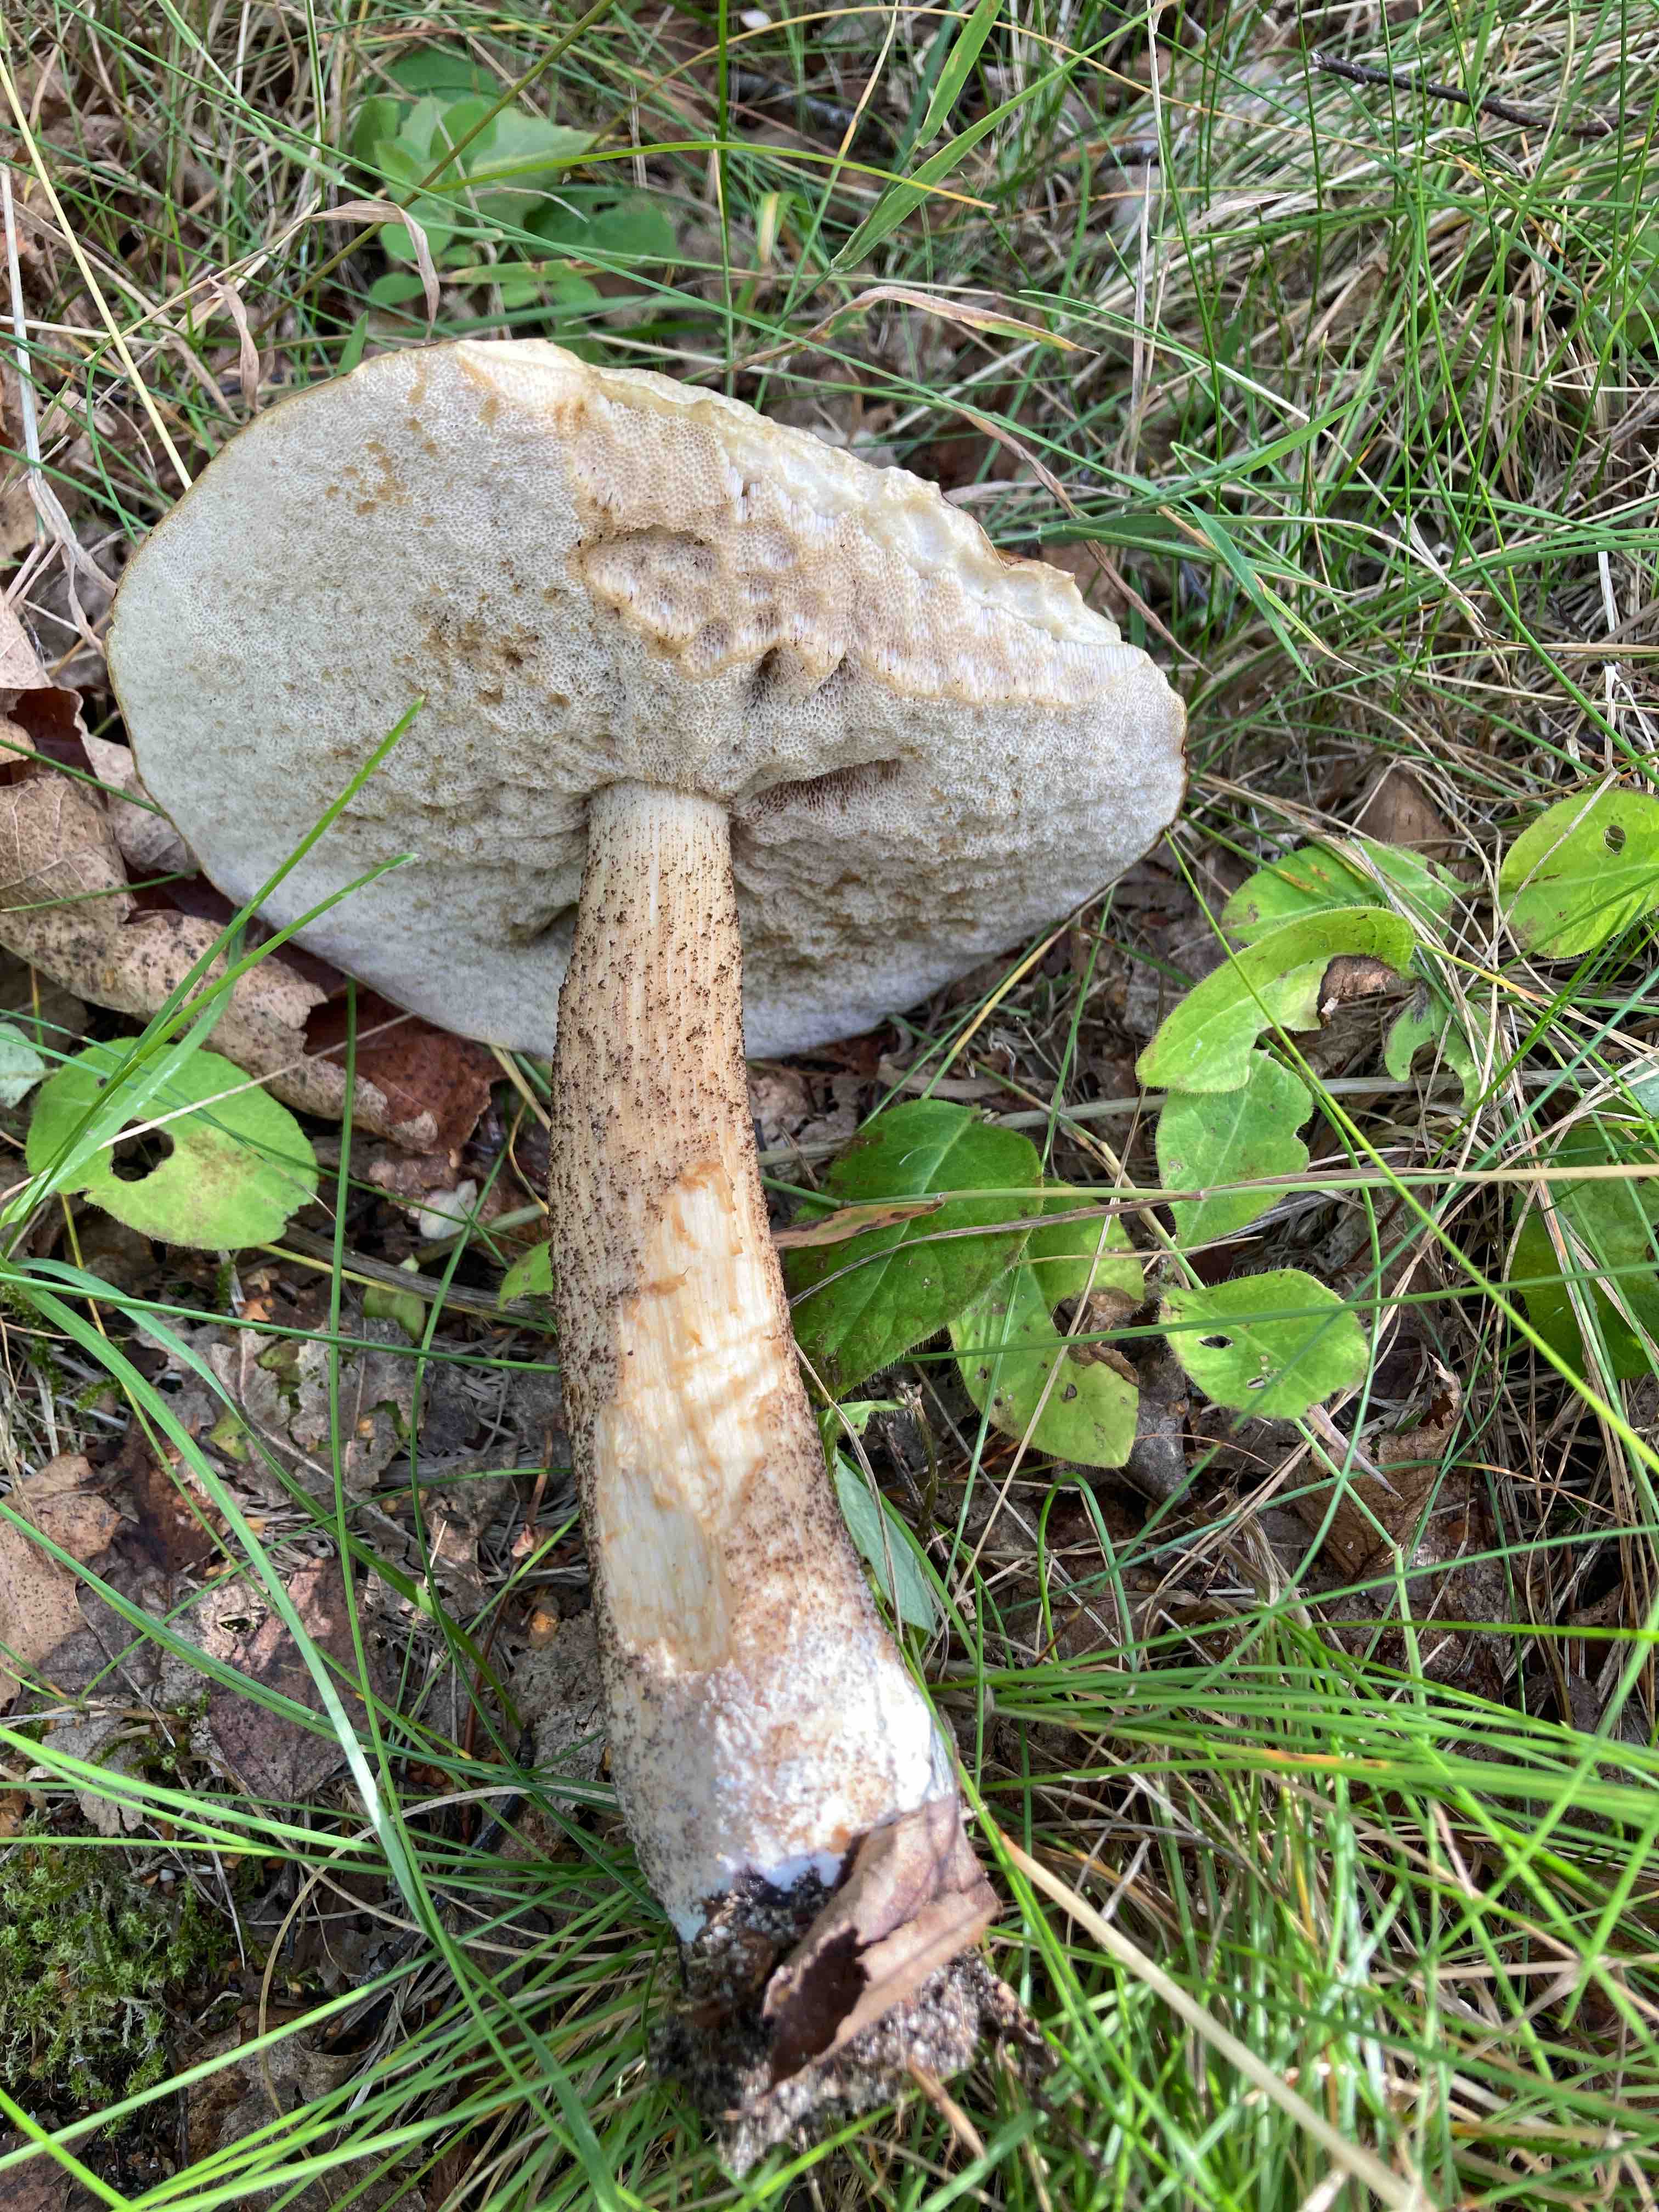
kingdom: Fungi
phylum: Basidiomycota
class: Agaricomycetes
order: Boletales
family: Boletaceae
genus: Leccinum
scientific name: Leccinum scabrum
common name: brun skælrørhat
